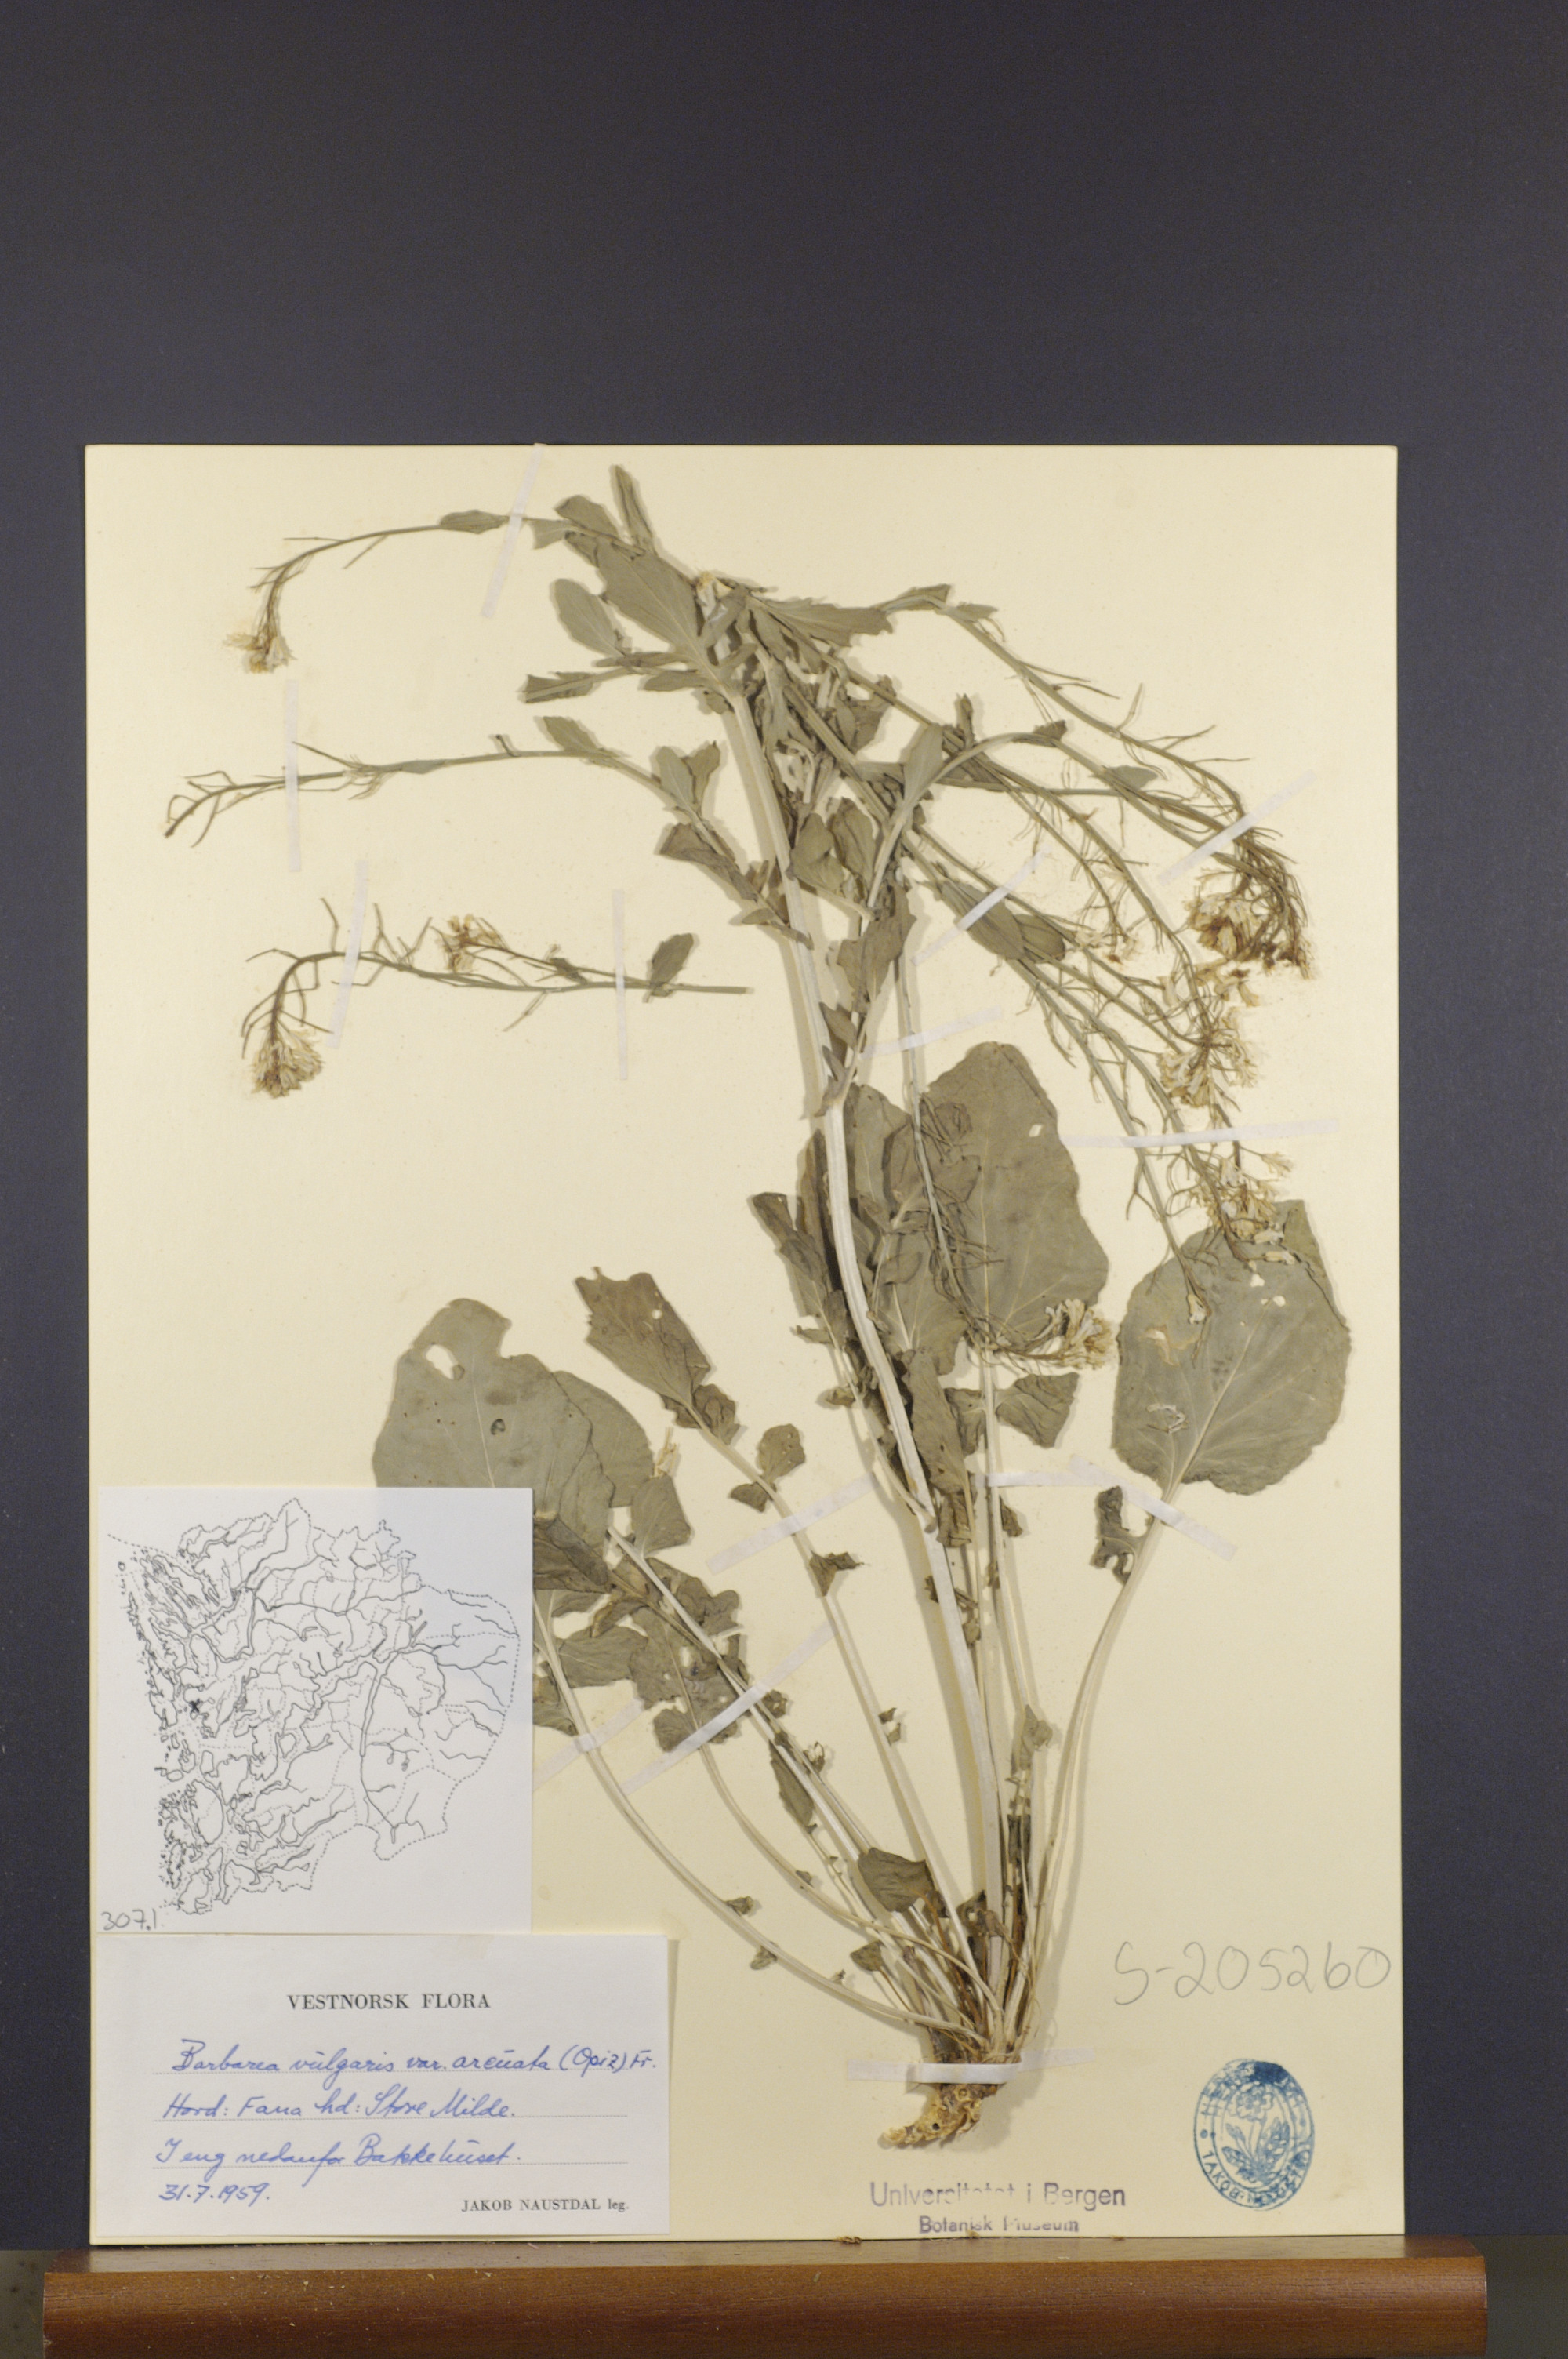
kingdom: Plantae
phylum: Tracheophyta
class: Magnoliopsida
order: Brassicales
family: Brassicaceae
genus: Barbarea
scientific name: Barbarea vulgaris
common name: Cressy-greens
